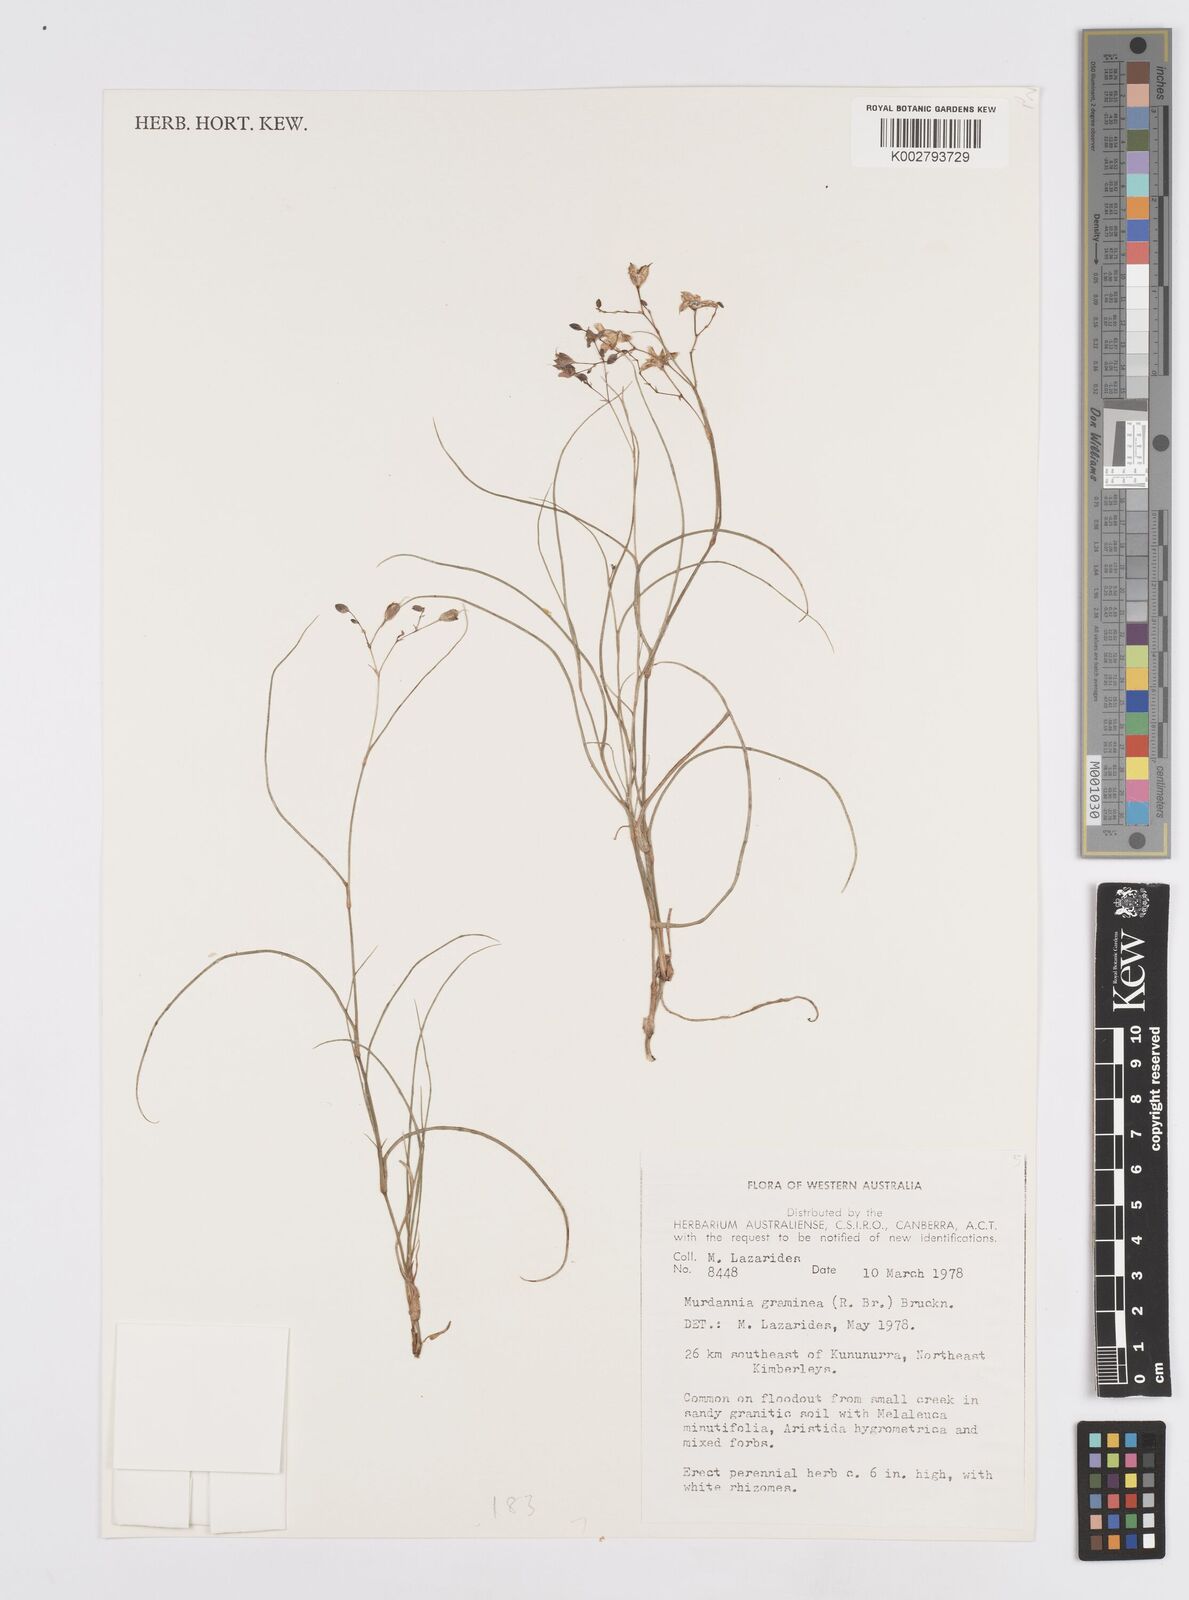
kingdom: Plantae
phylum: Tracheophyta
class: Liliopsida
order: Commelinales
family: Commelinaceae
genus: Murdannia
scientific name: Murdannia graminea
